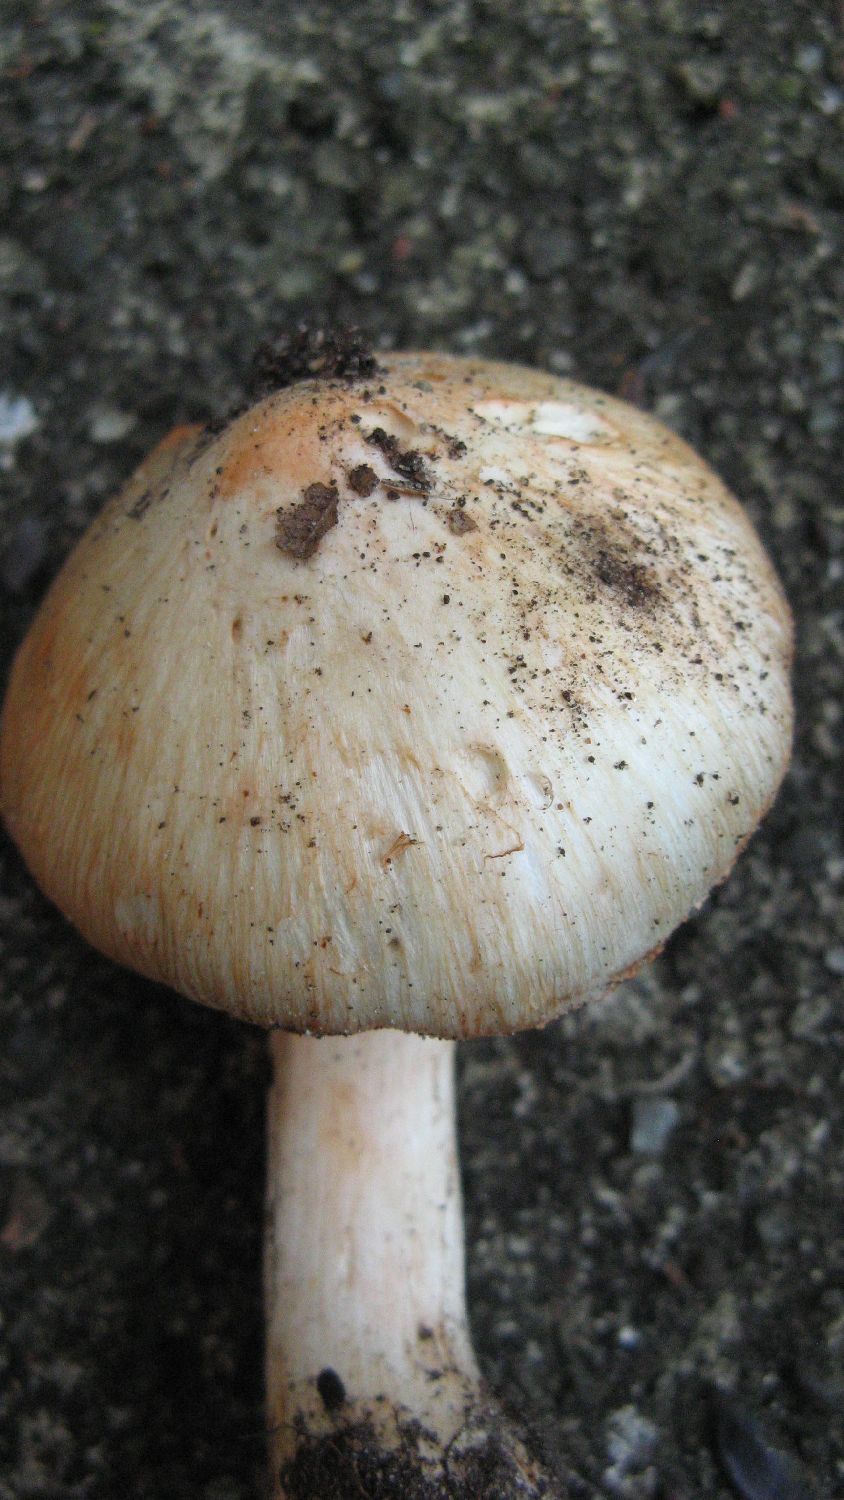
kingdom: Fungi
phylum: Basidiomycota
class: Agaricomycetes
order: Agaricales
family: Inocybaceae
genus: Inosperma
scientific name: Inosperma erubescens
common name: giftig trævlhat
